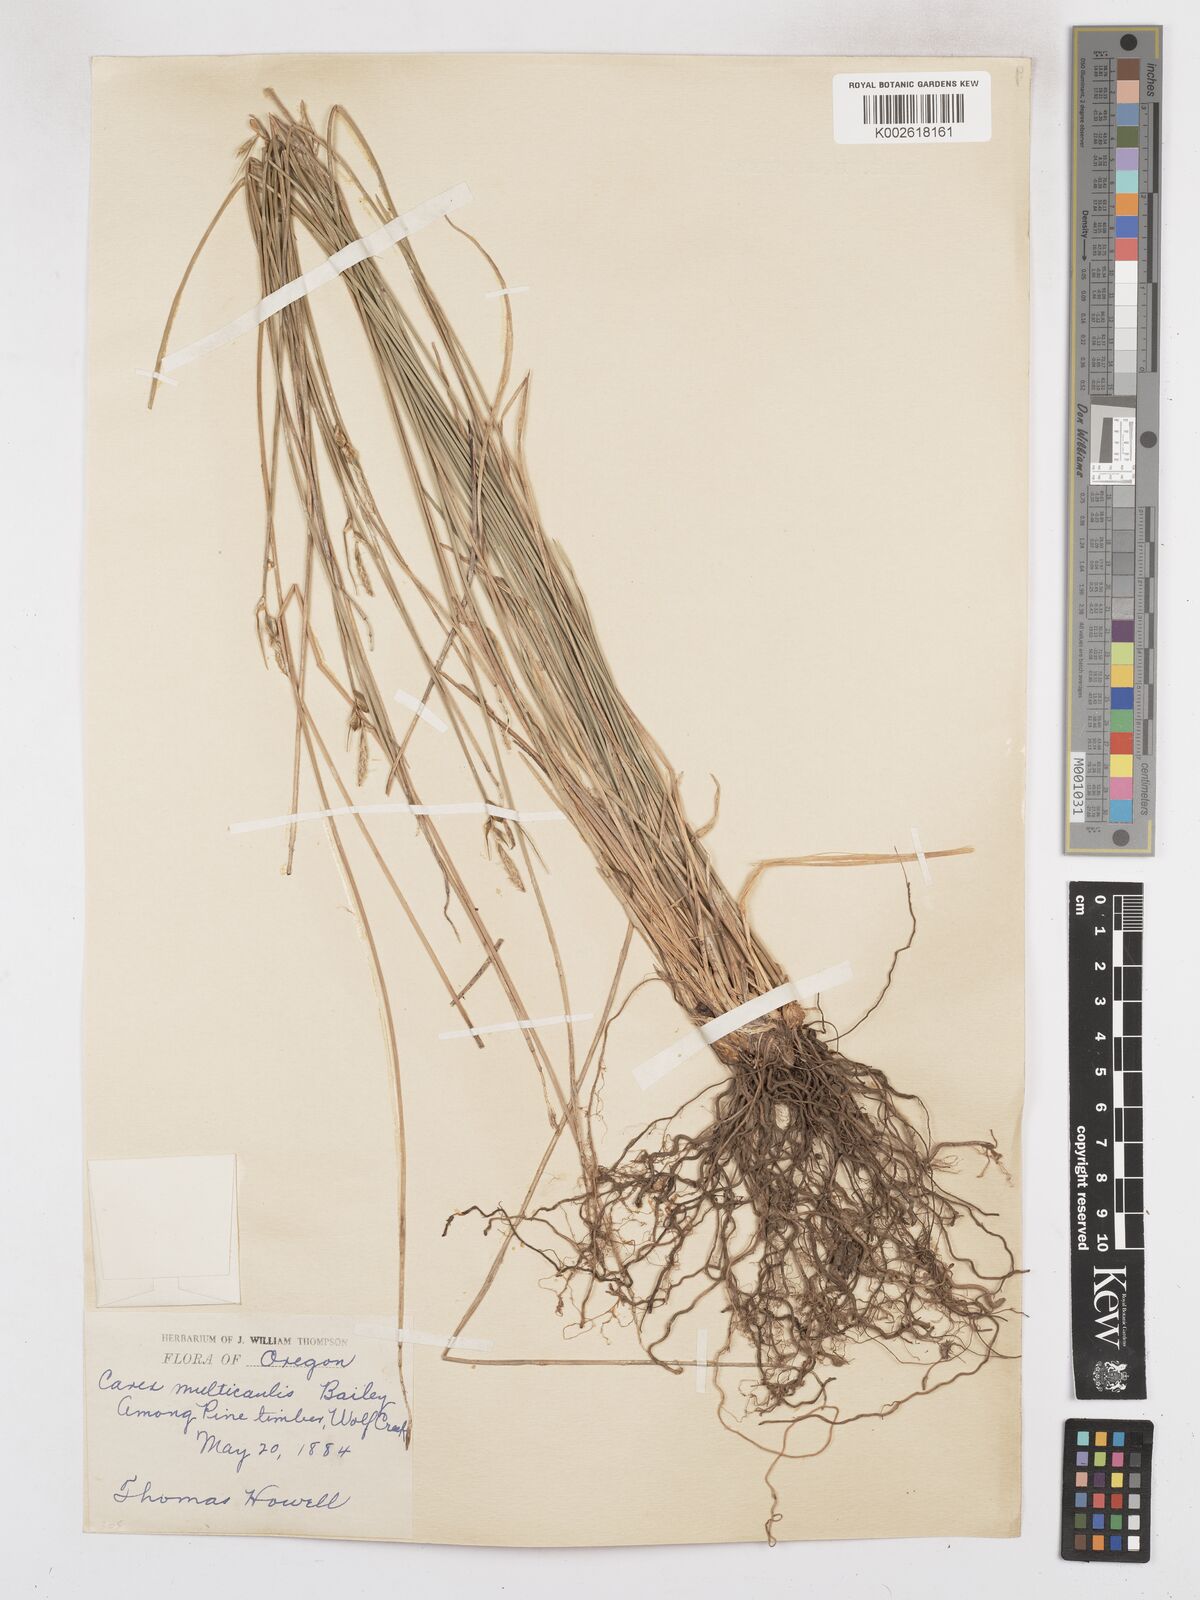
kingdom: Plantae
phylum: Tracheophyta
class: Liliopsida
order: Poales
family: Cyperaceae
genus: Carex
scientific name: Carex multicaulis
